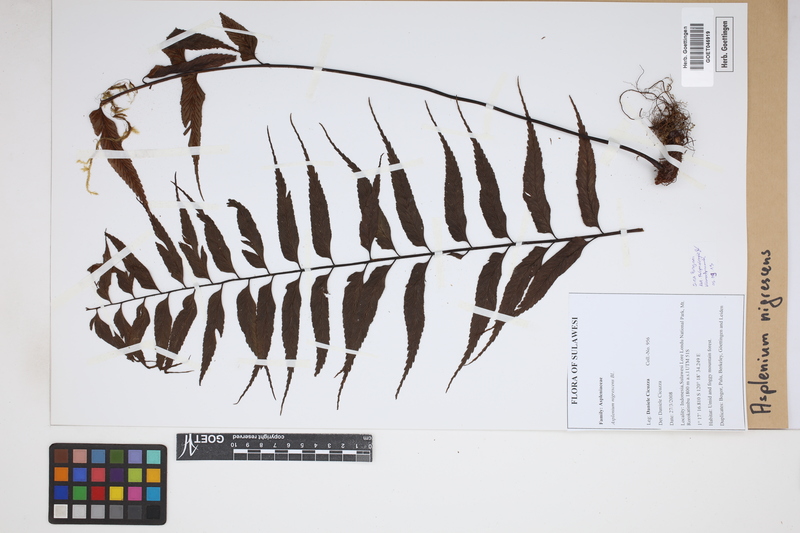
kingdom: Plantae
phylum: Tracheophyta
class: Polypodiopsida
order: Polypodiales
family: Aspleniaceae
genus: Asplenium
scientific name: Asplenium nigrescens
